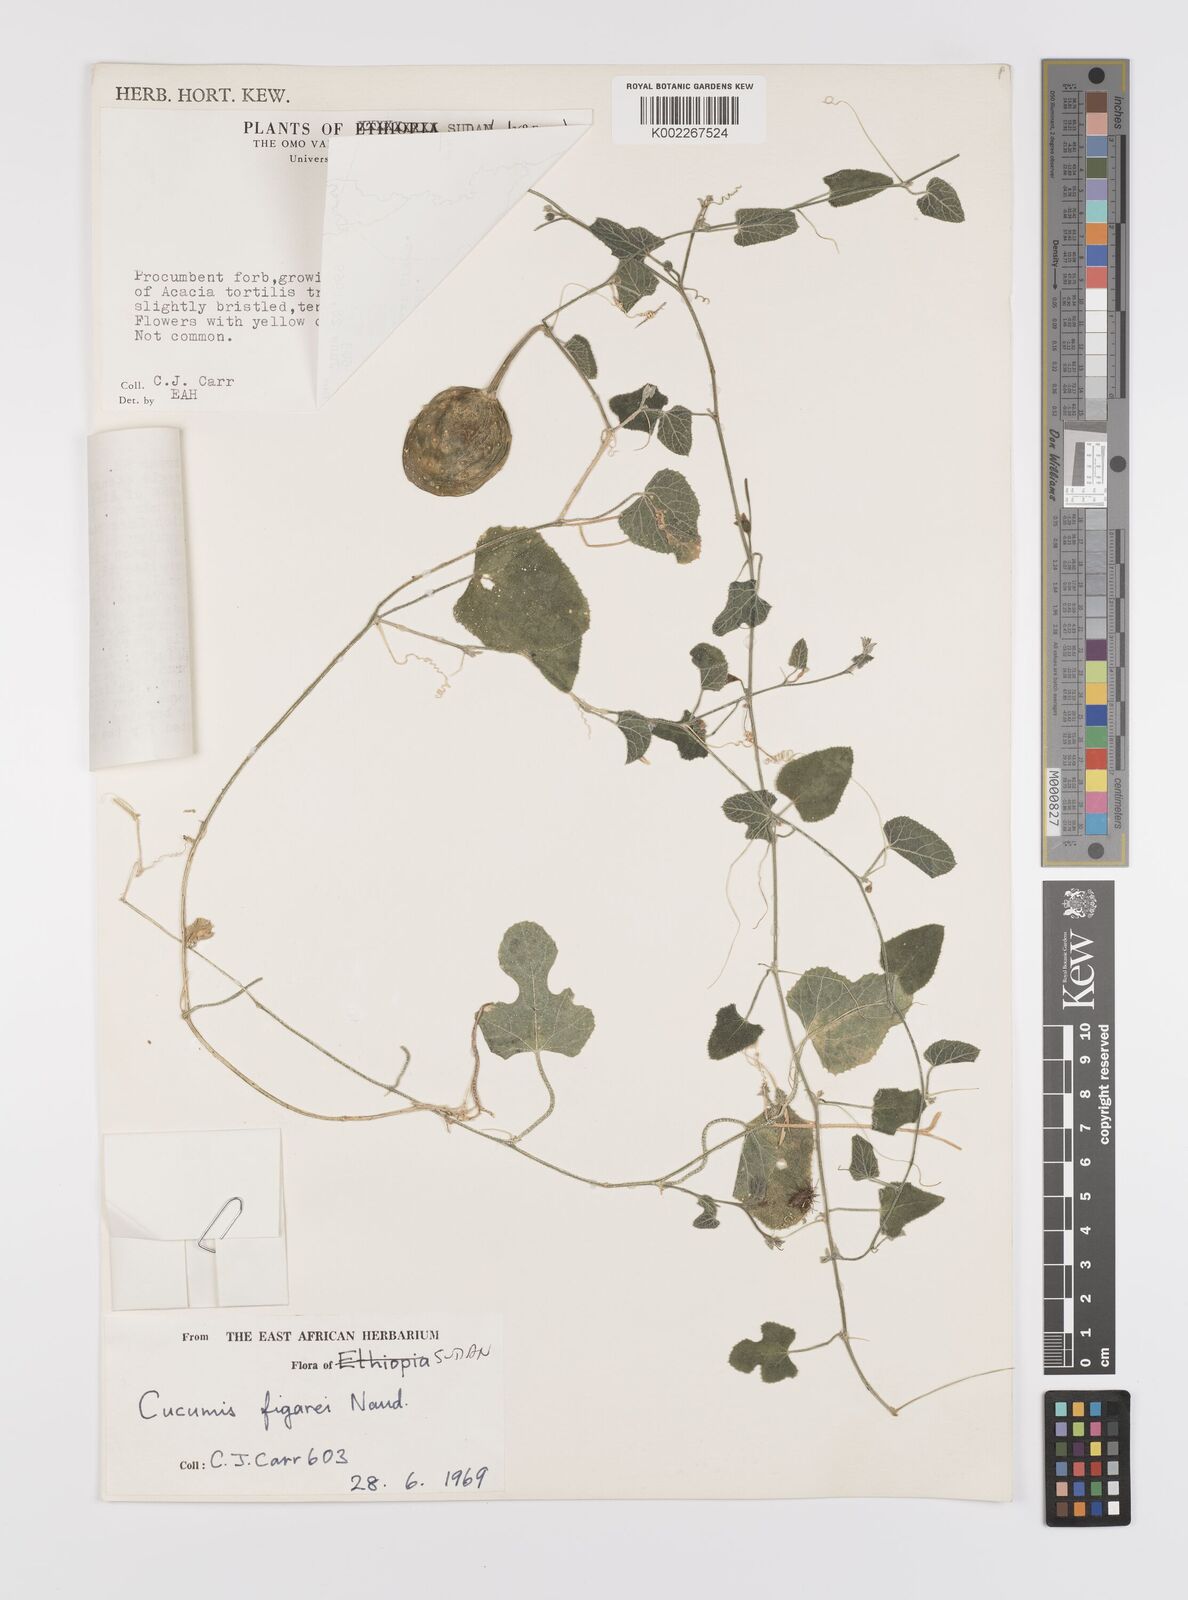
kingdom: Plantae
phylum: Tracheophyta
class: Magnoliopsida
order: Cucurbitales
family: Cucurbitaceae
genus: Cucumis
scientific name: Cucumis pustulatus
